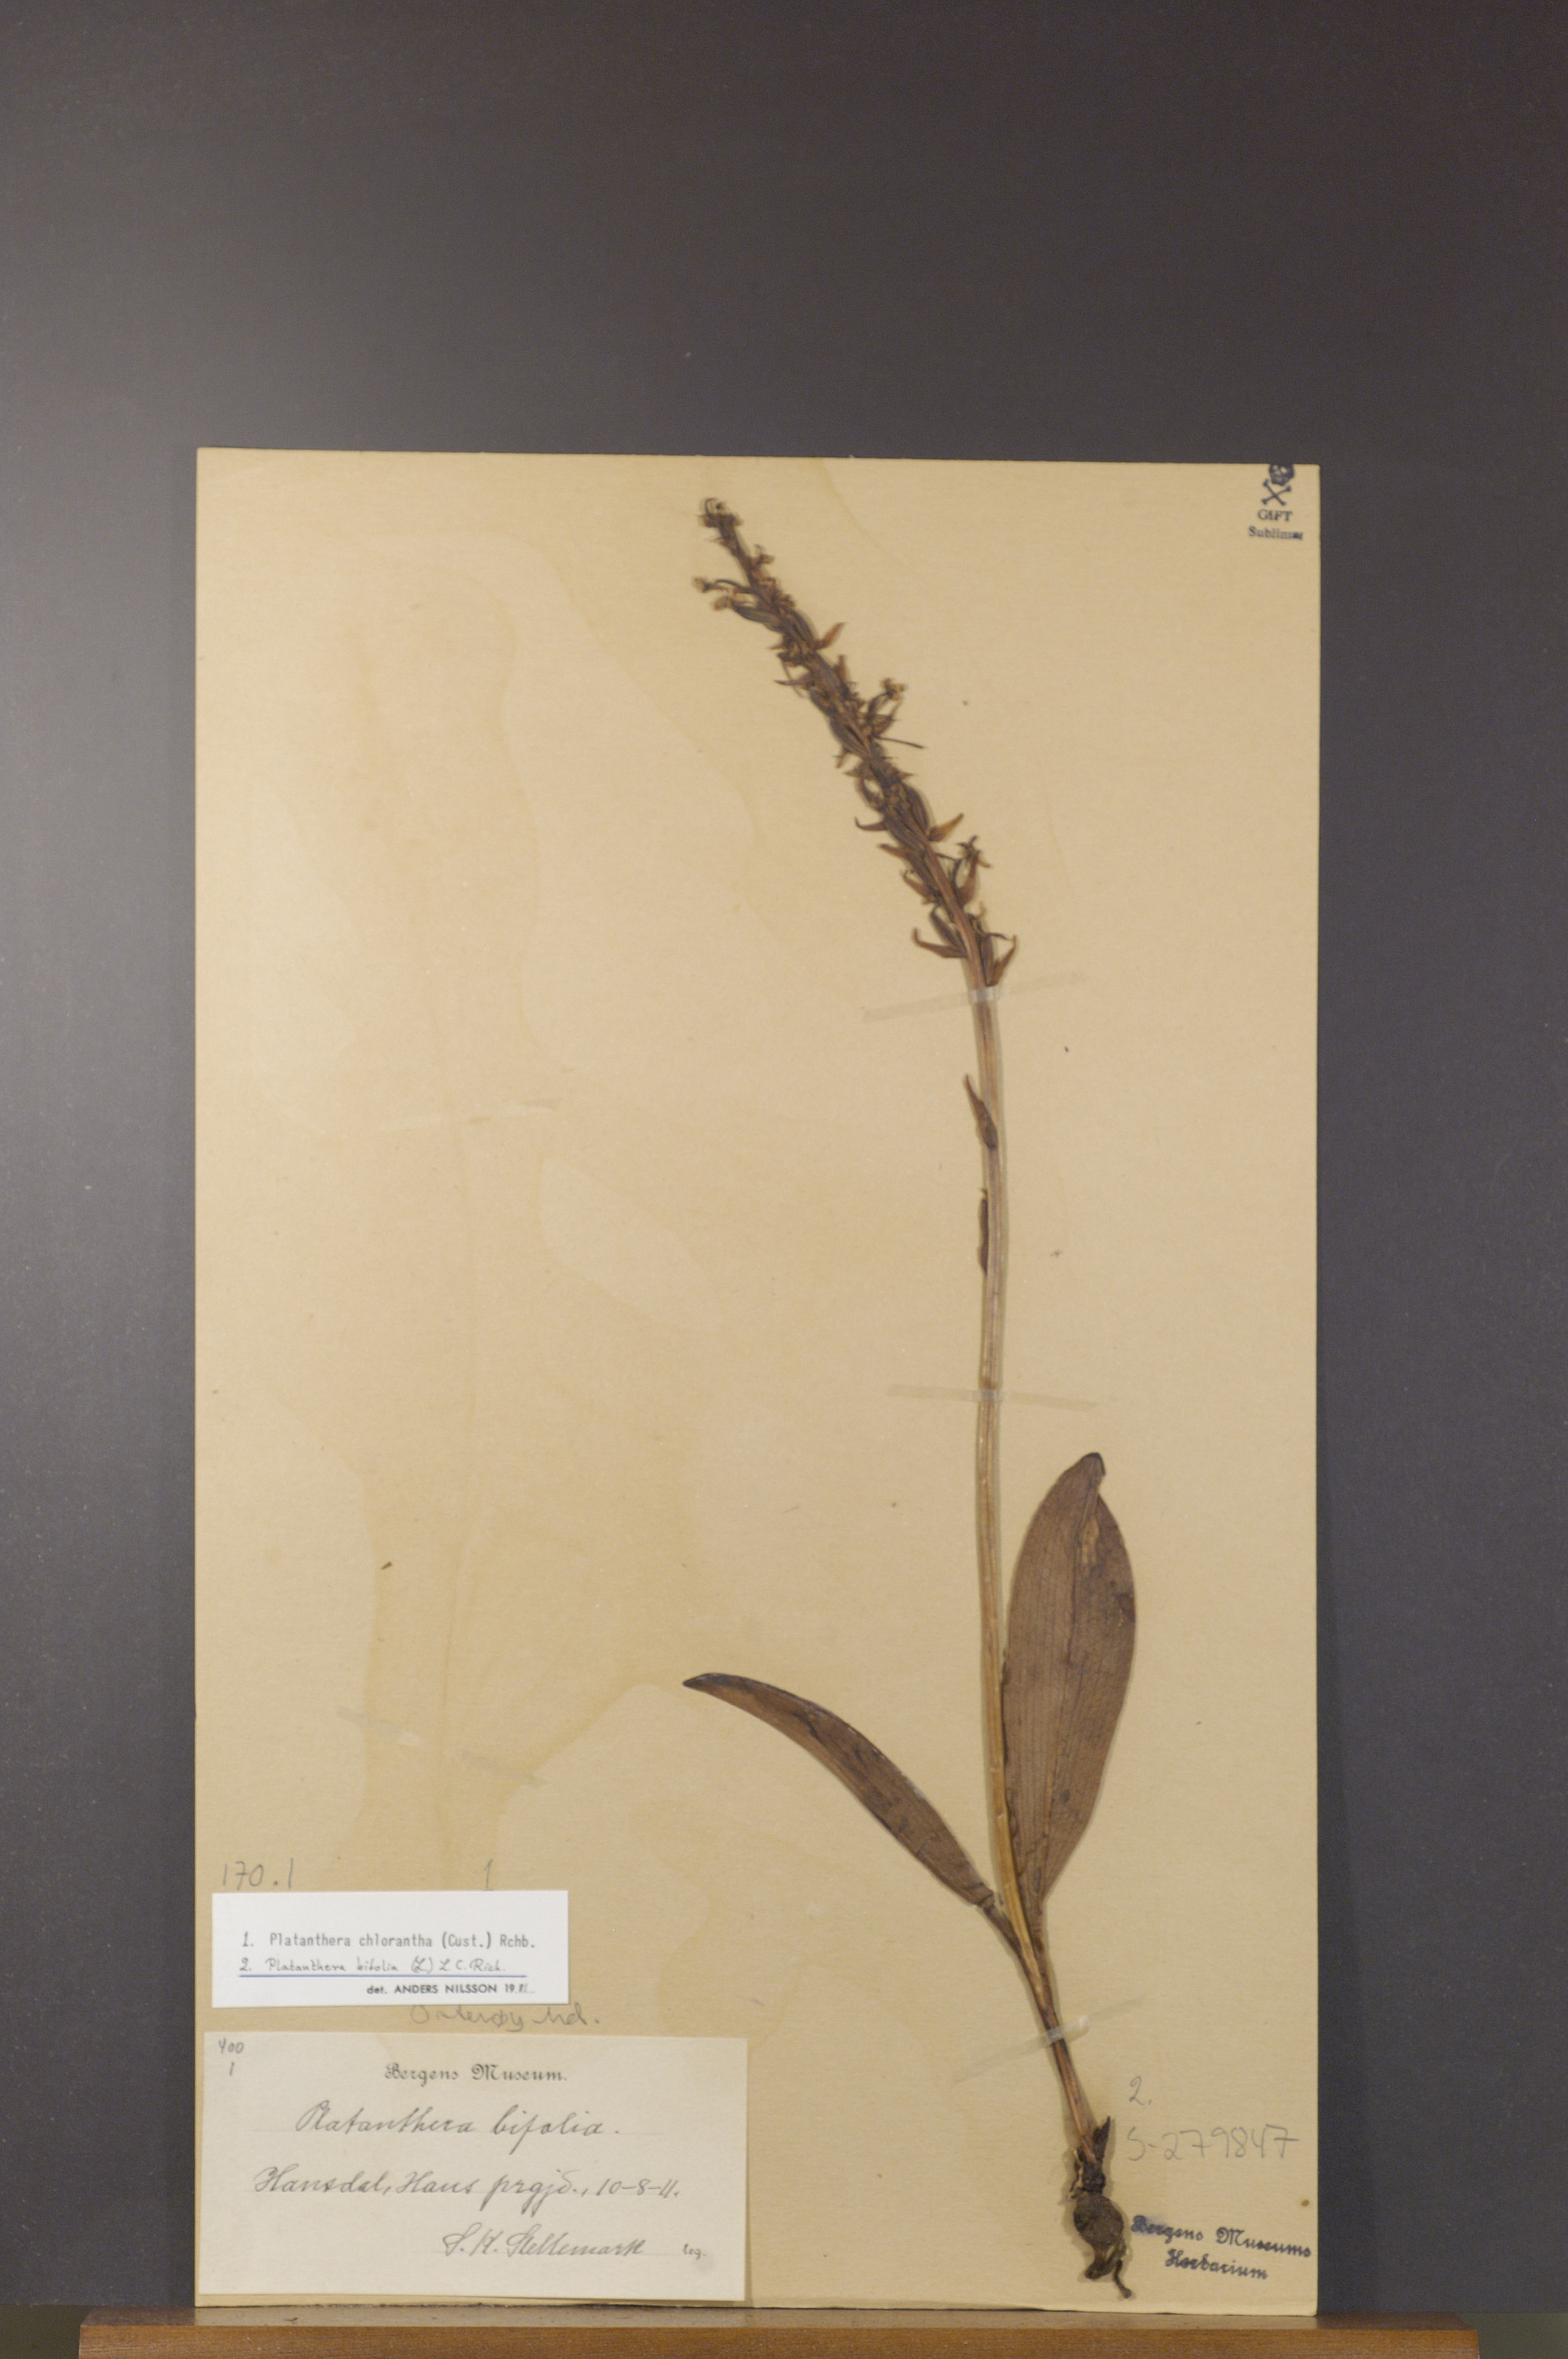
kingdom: Plantae
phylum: Tracheophyta
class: Liliopsida
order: Asparagales
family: Orchidaceae
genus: Platanthera
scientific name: Platanthera bifolia
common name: Lesser butterfly-orchid
